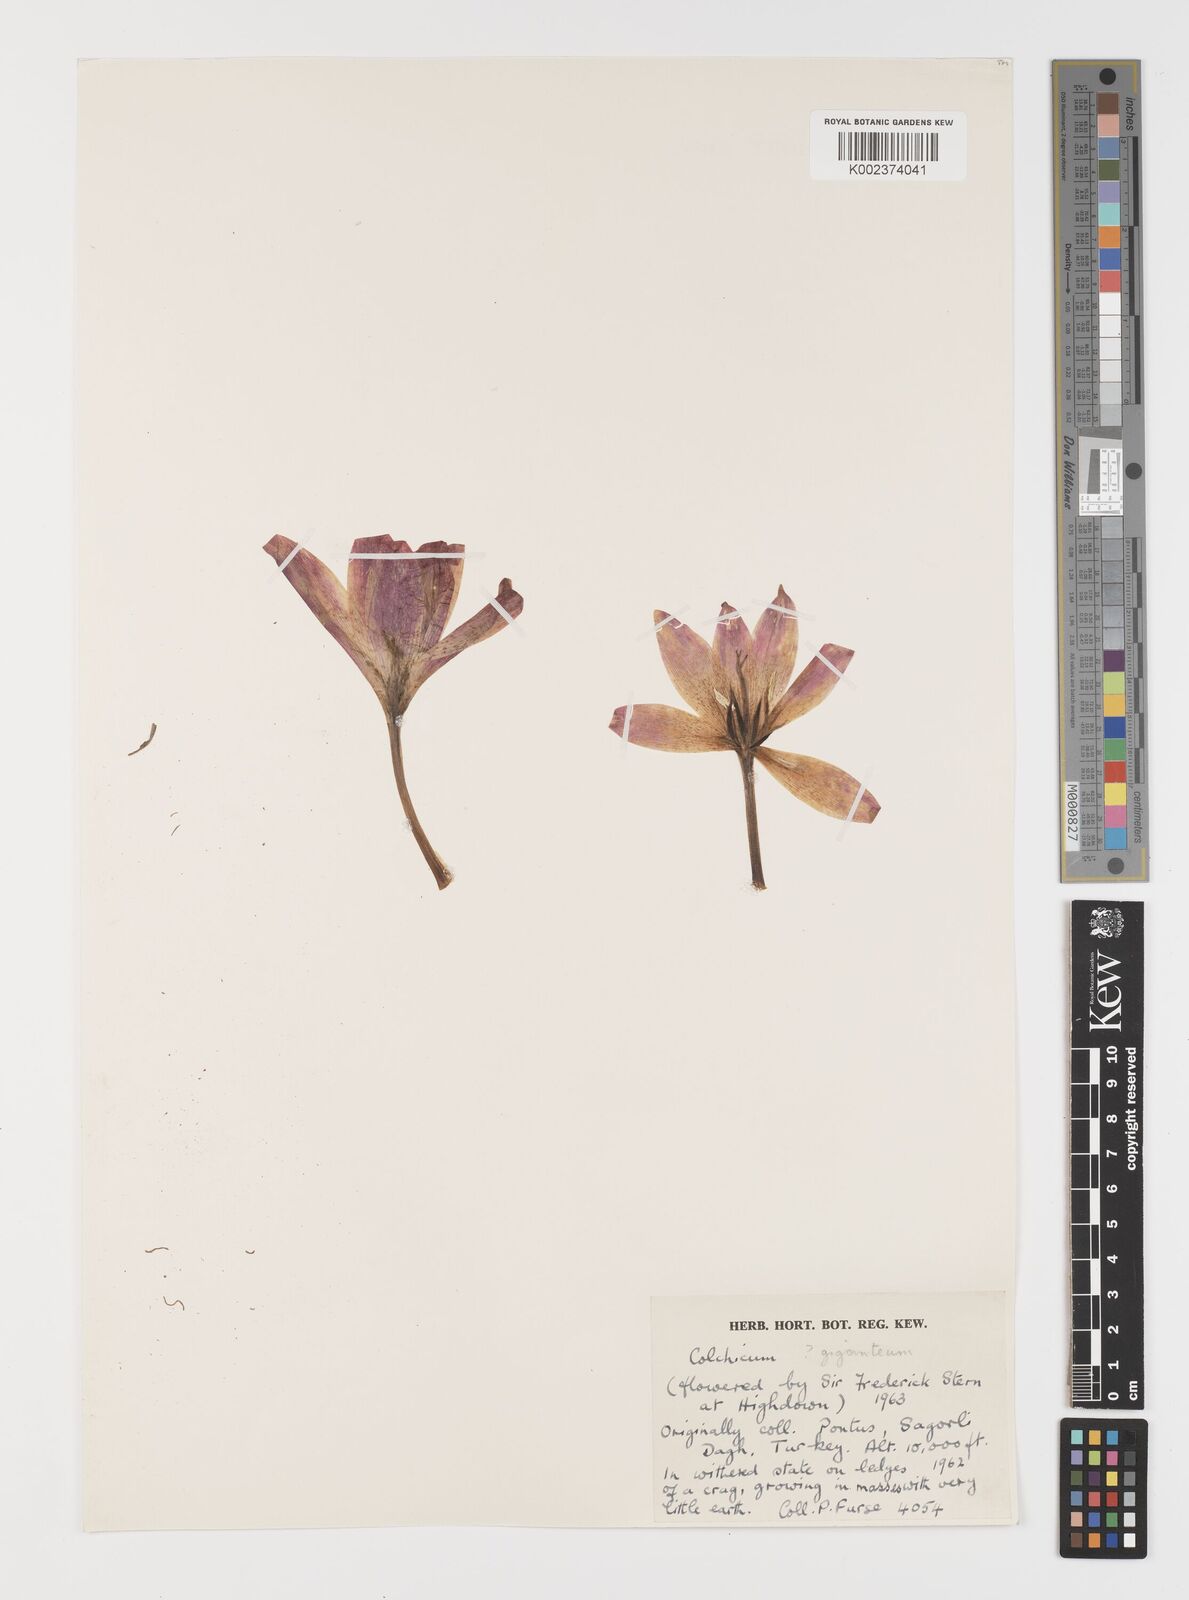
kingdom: Plantae
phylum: Tracheophyta
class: Liliopsida
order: Liliales
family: Colchicaceae
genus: Colchicum
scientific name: Colchicum speciosum
